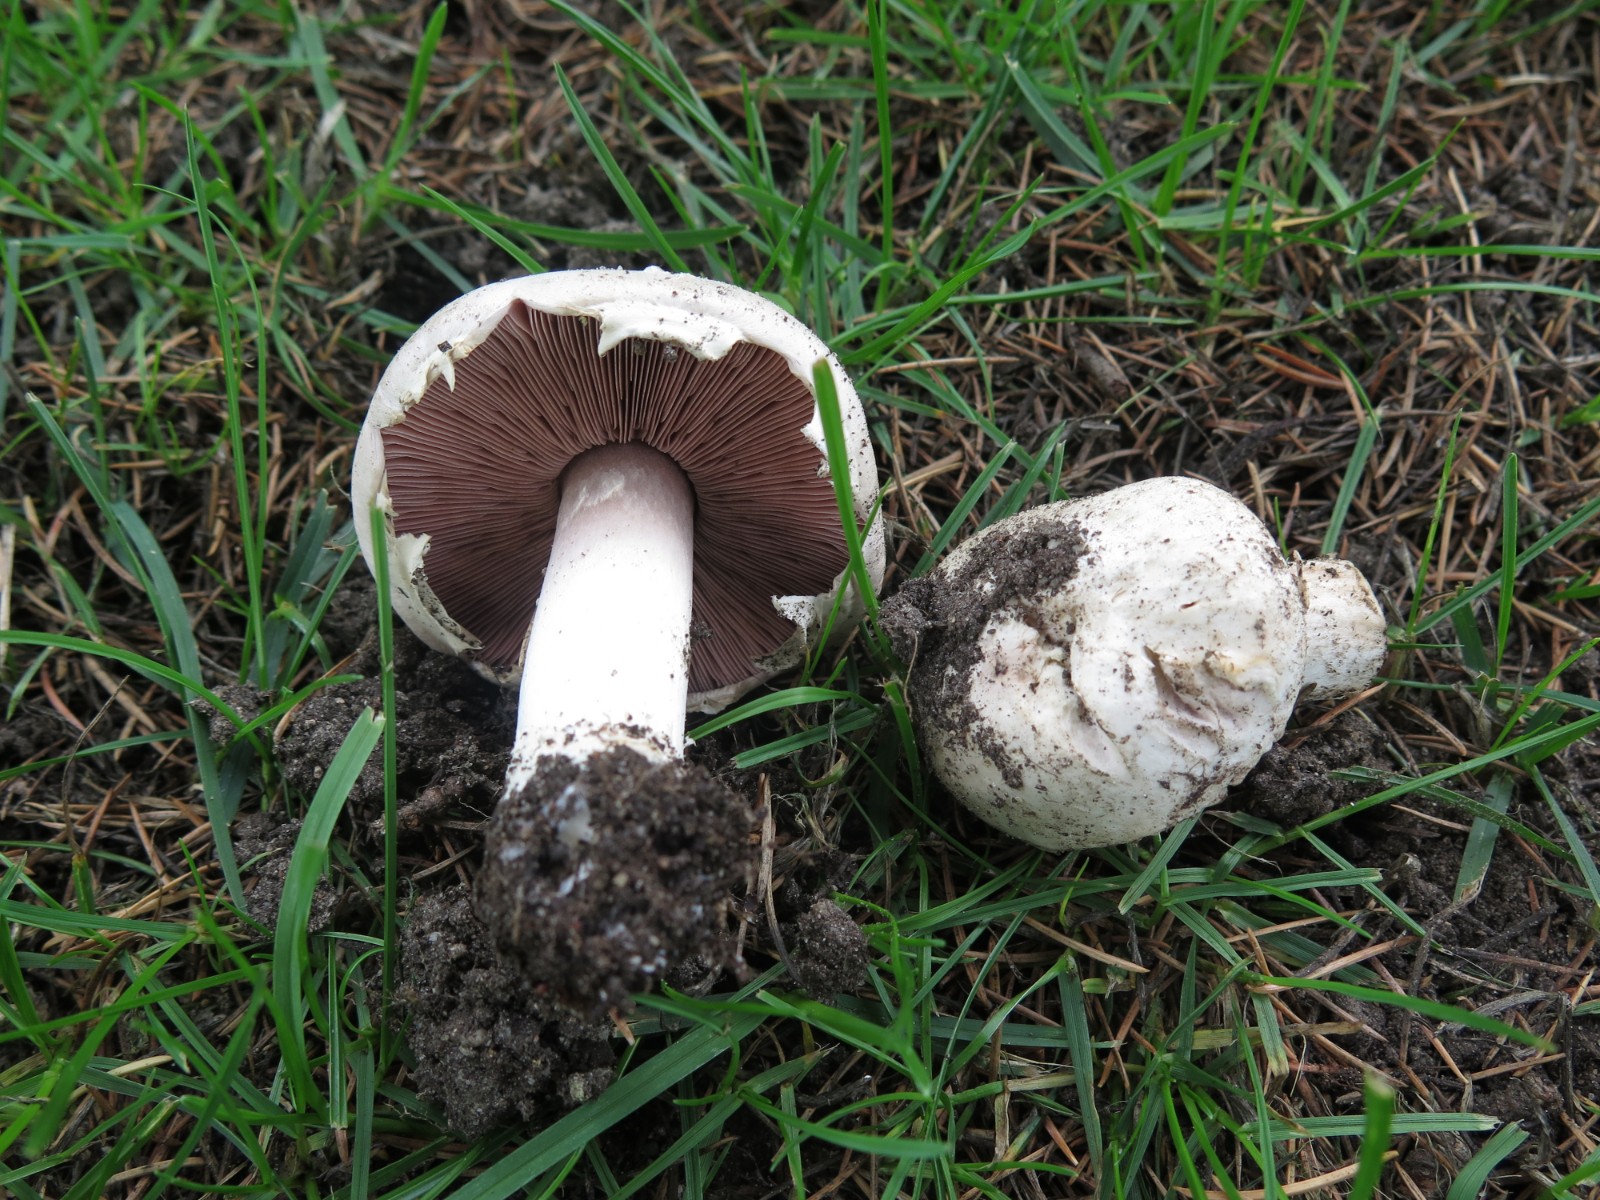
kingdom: Fungi
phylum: Basidiomycota
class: Agaricomycetes
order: Agaricales
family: Agaricaceae
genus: Agaricus
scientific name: Agaricus bitorquis
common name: vej-champignon
